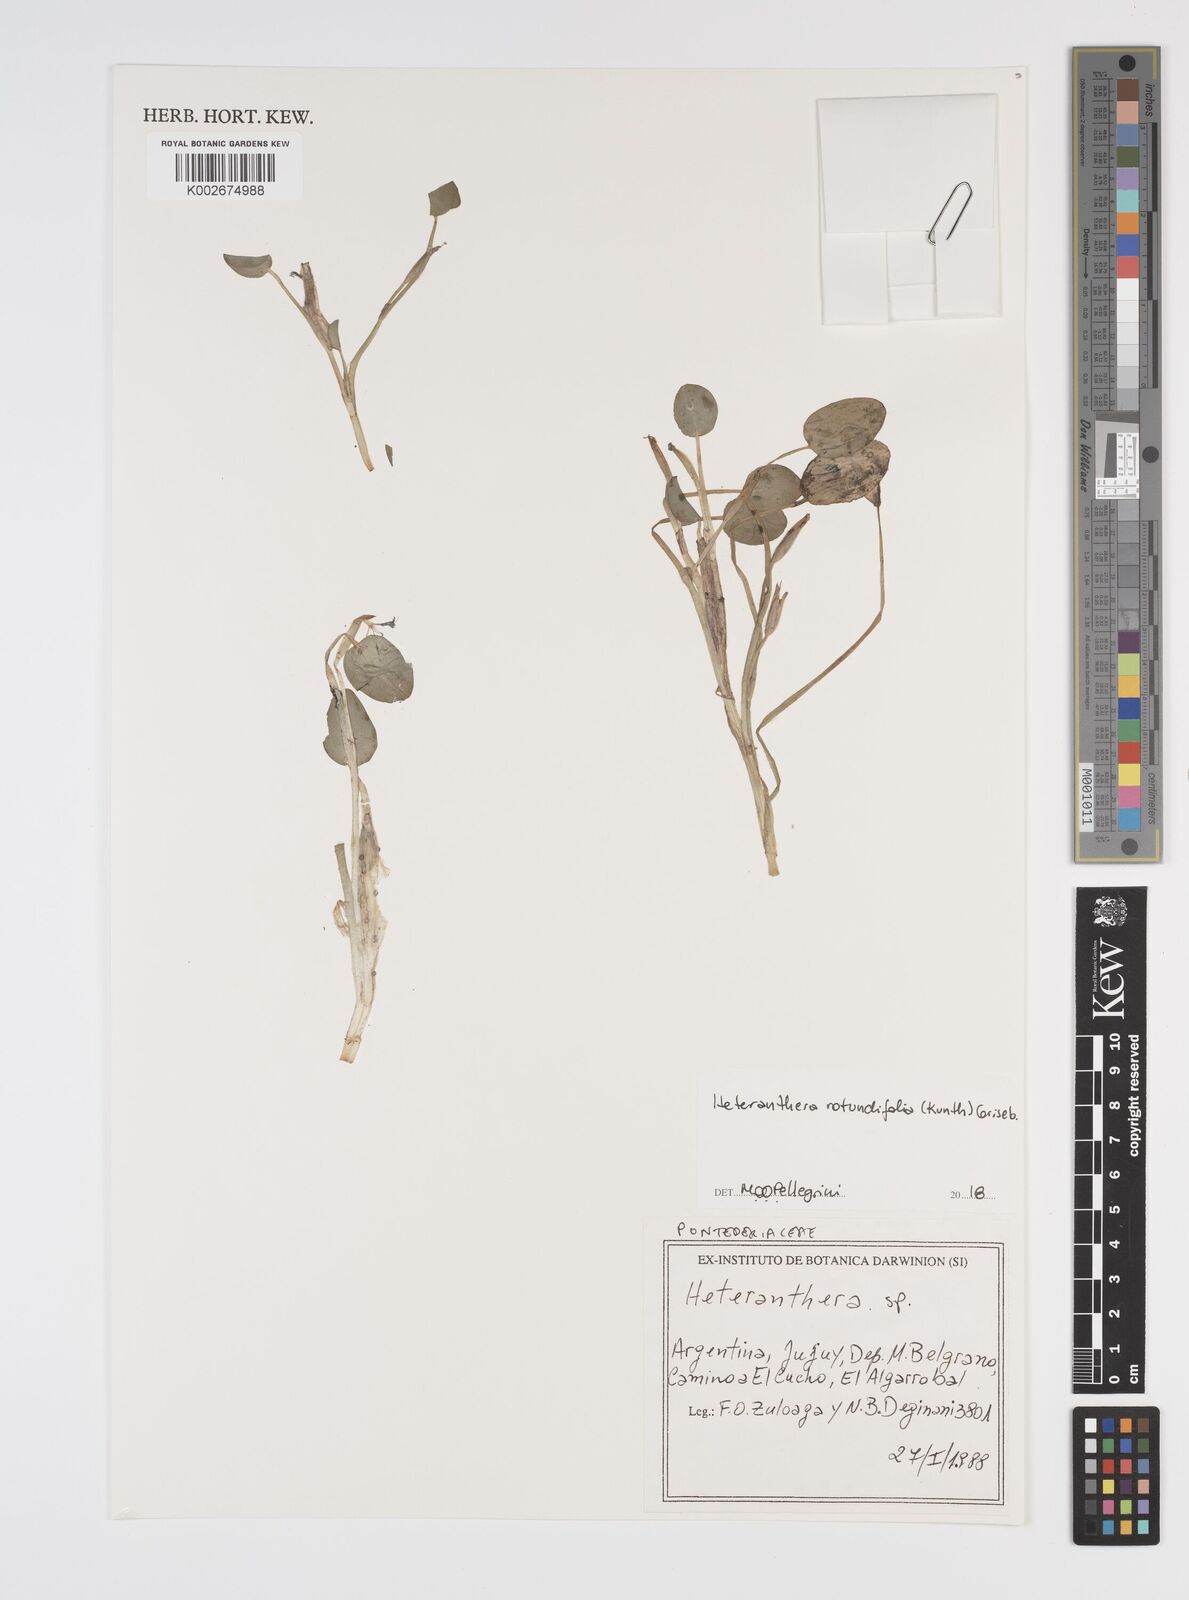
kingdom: Plantae
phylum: Tracheophyta
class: Liliopsida
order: Commelinales
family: Pontederiaceae
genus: Heteranthera
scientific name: Heteranthera rotundifolia
